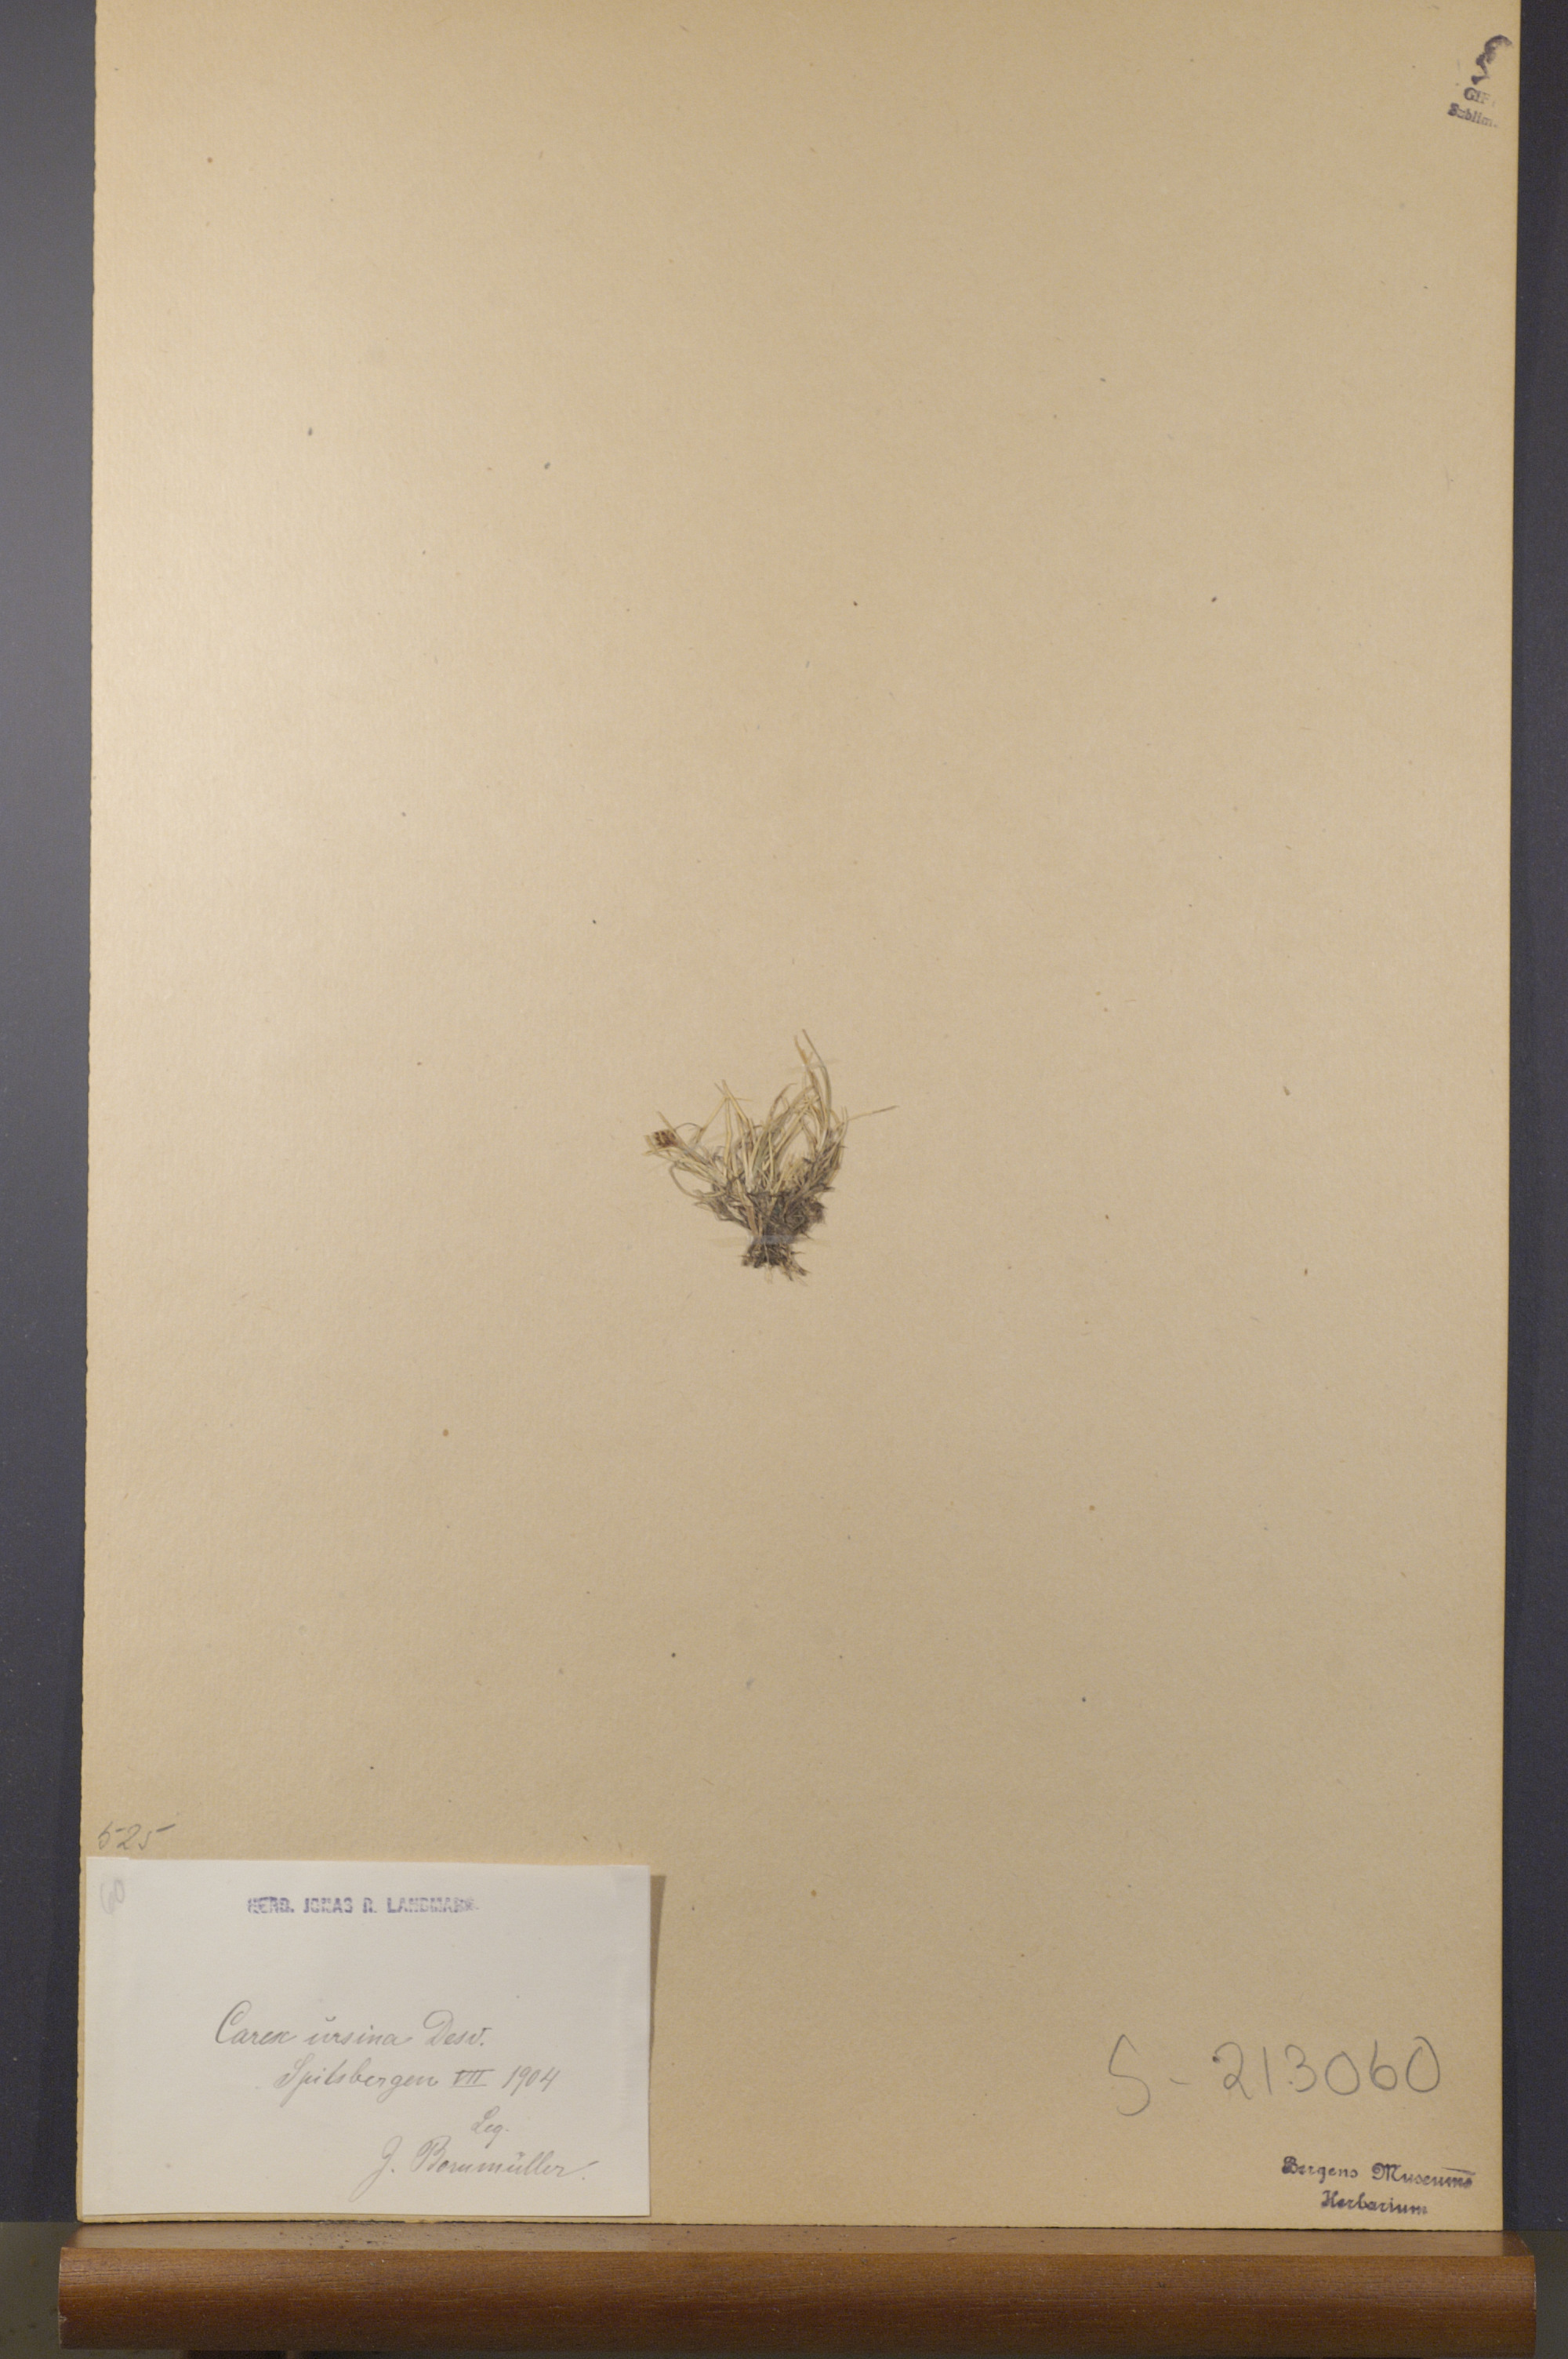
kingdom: Plantae
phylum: Tracheophyta
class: Liliopsida
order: Poales
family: Cyperaceae
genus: Carex
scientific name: Carex ursina
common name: Bear sedge
